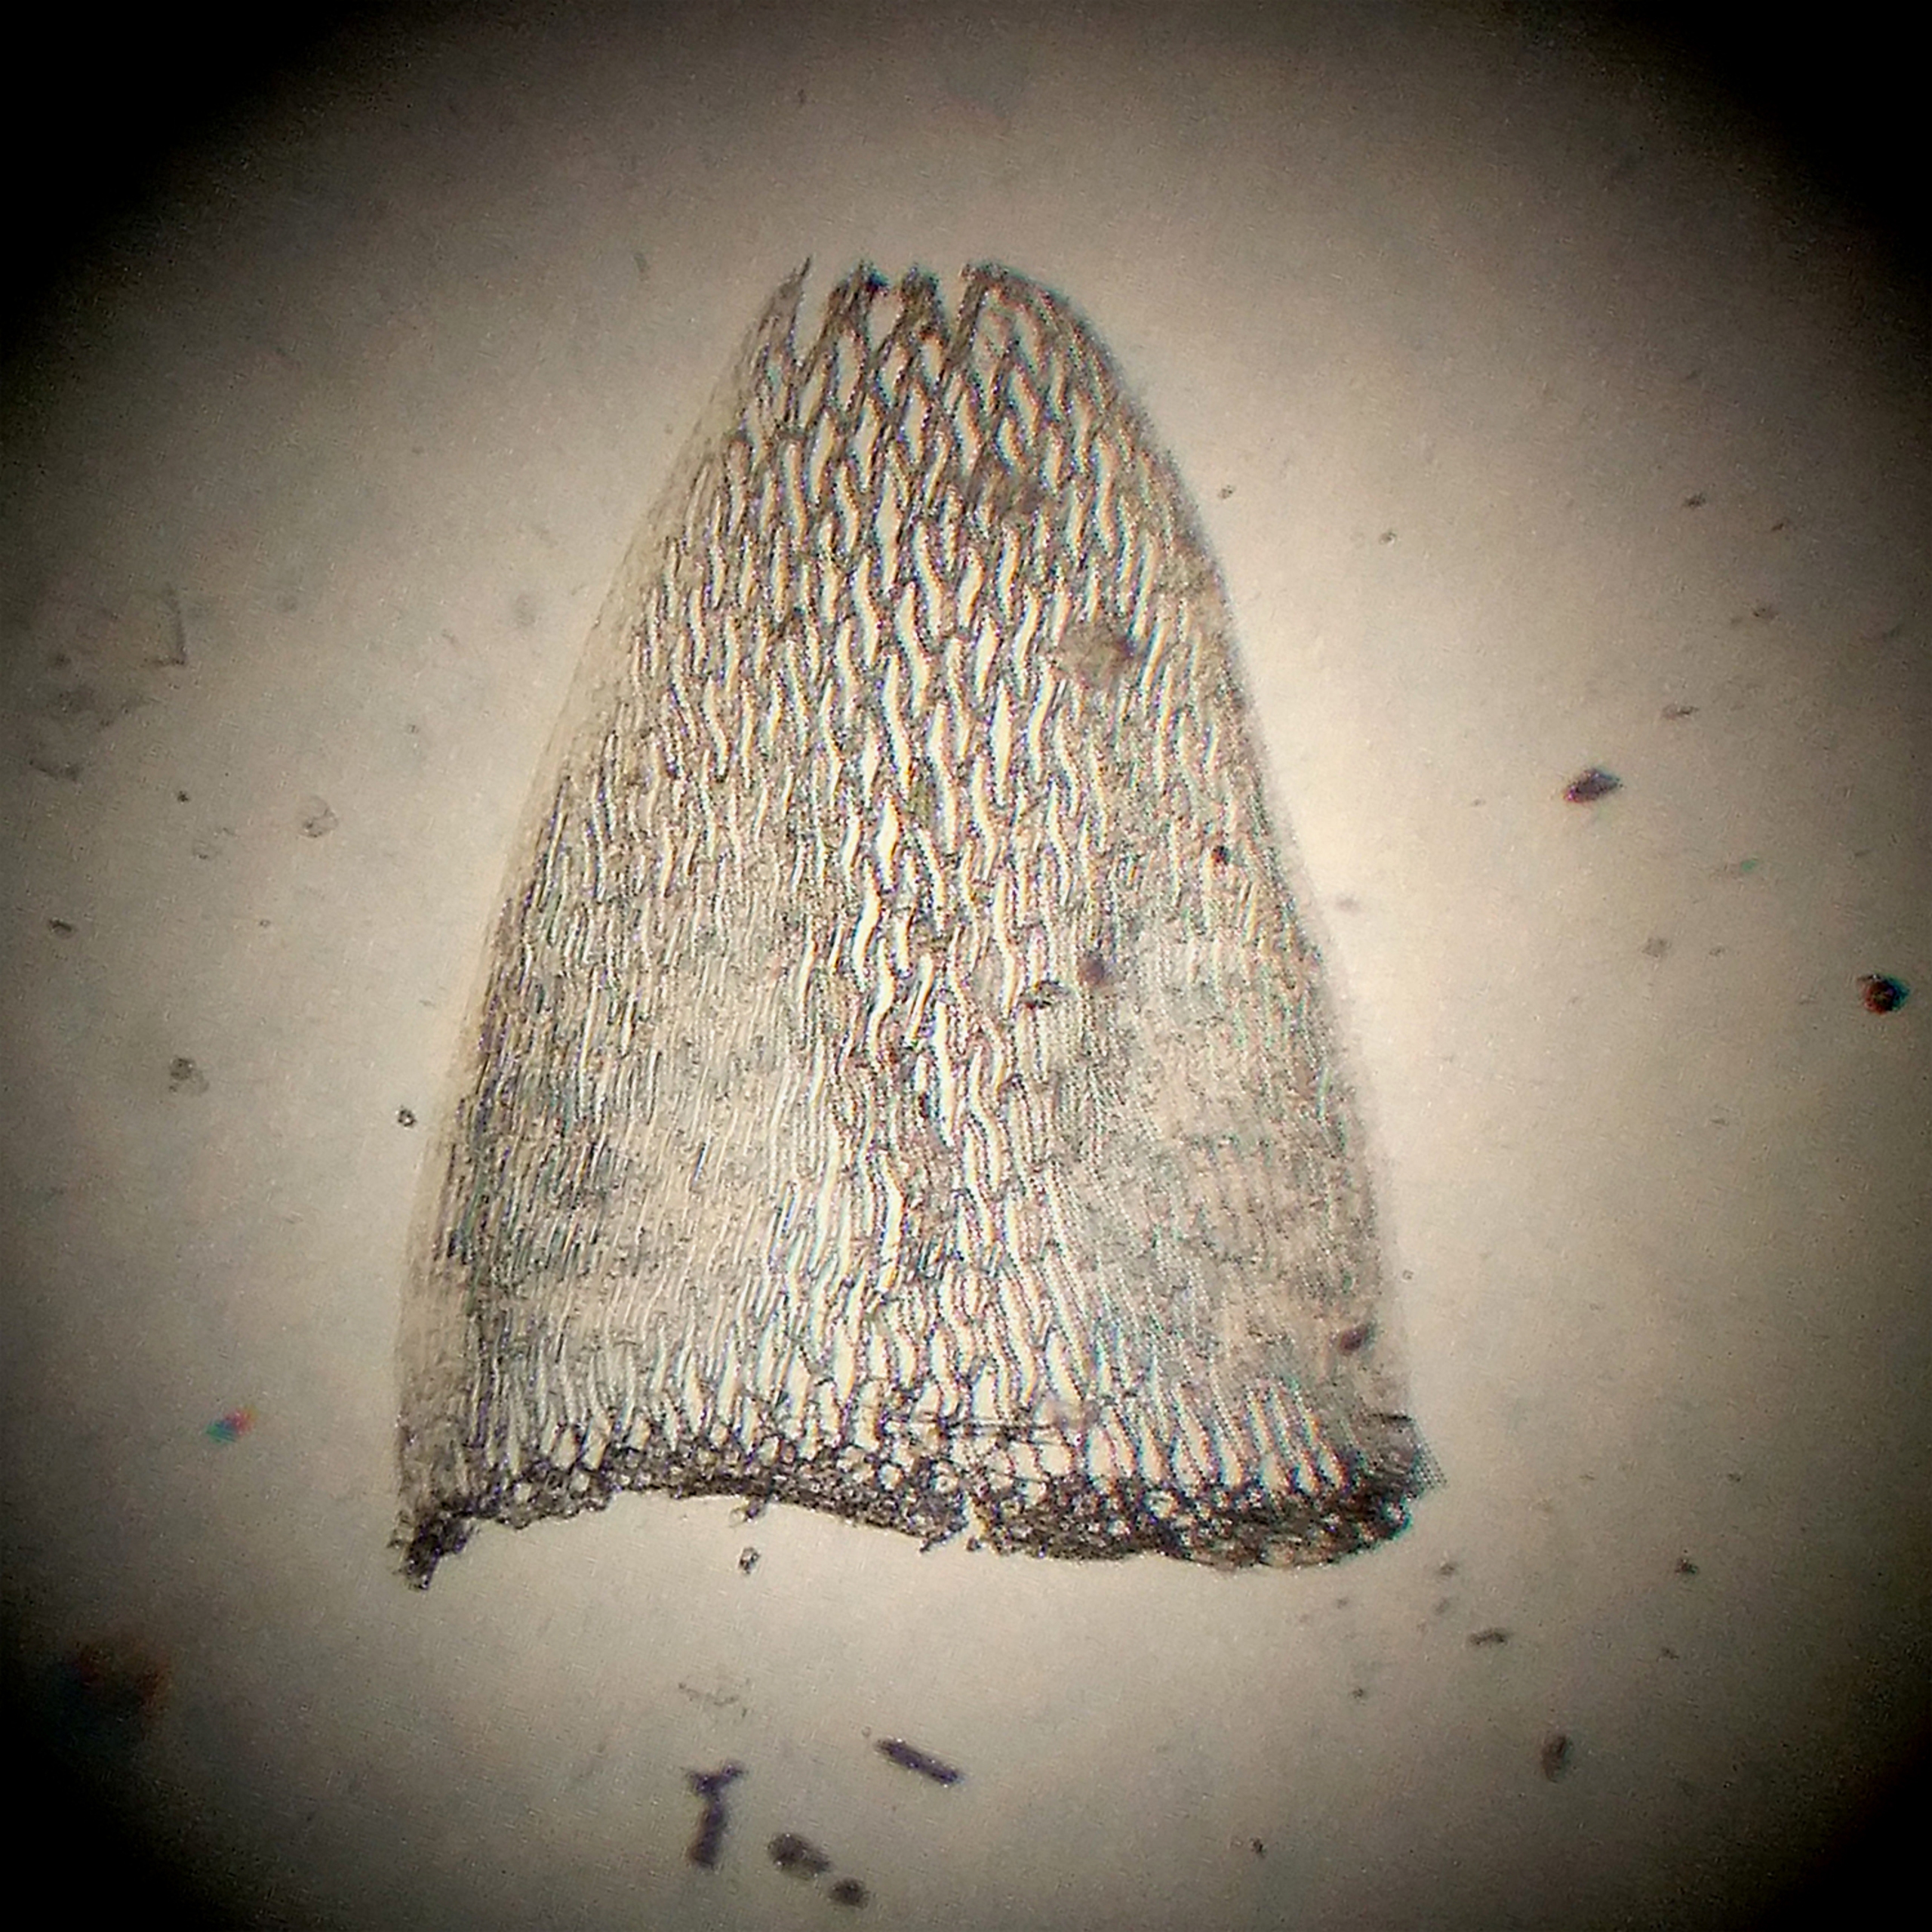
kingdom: Plantae
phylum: Bryophyta
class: Sphagnopsida
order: Sphagnales
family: Sphagnaceae
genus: Sphagnum
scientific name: Sphagnum flexuosum
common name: Kuplet tørvemos
